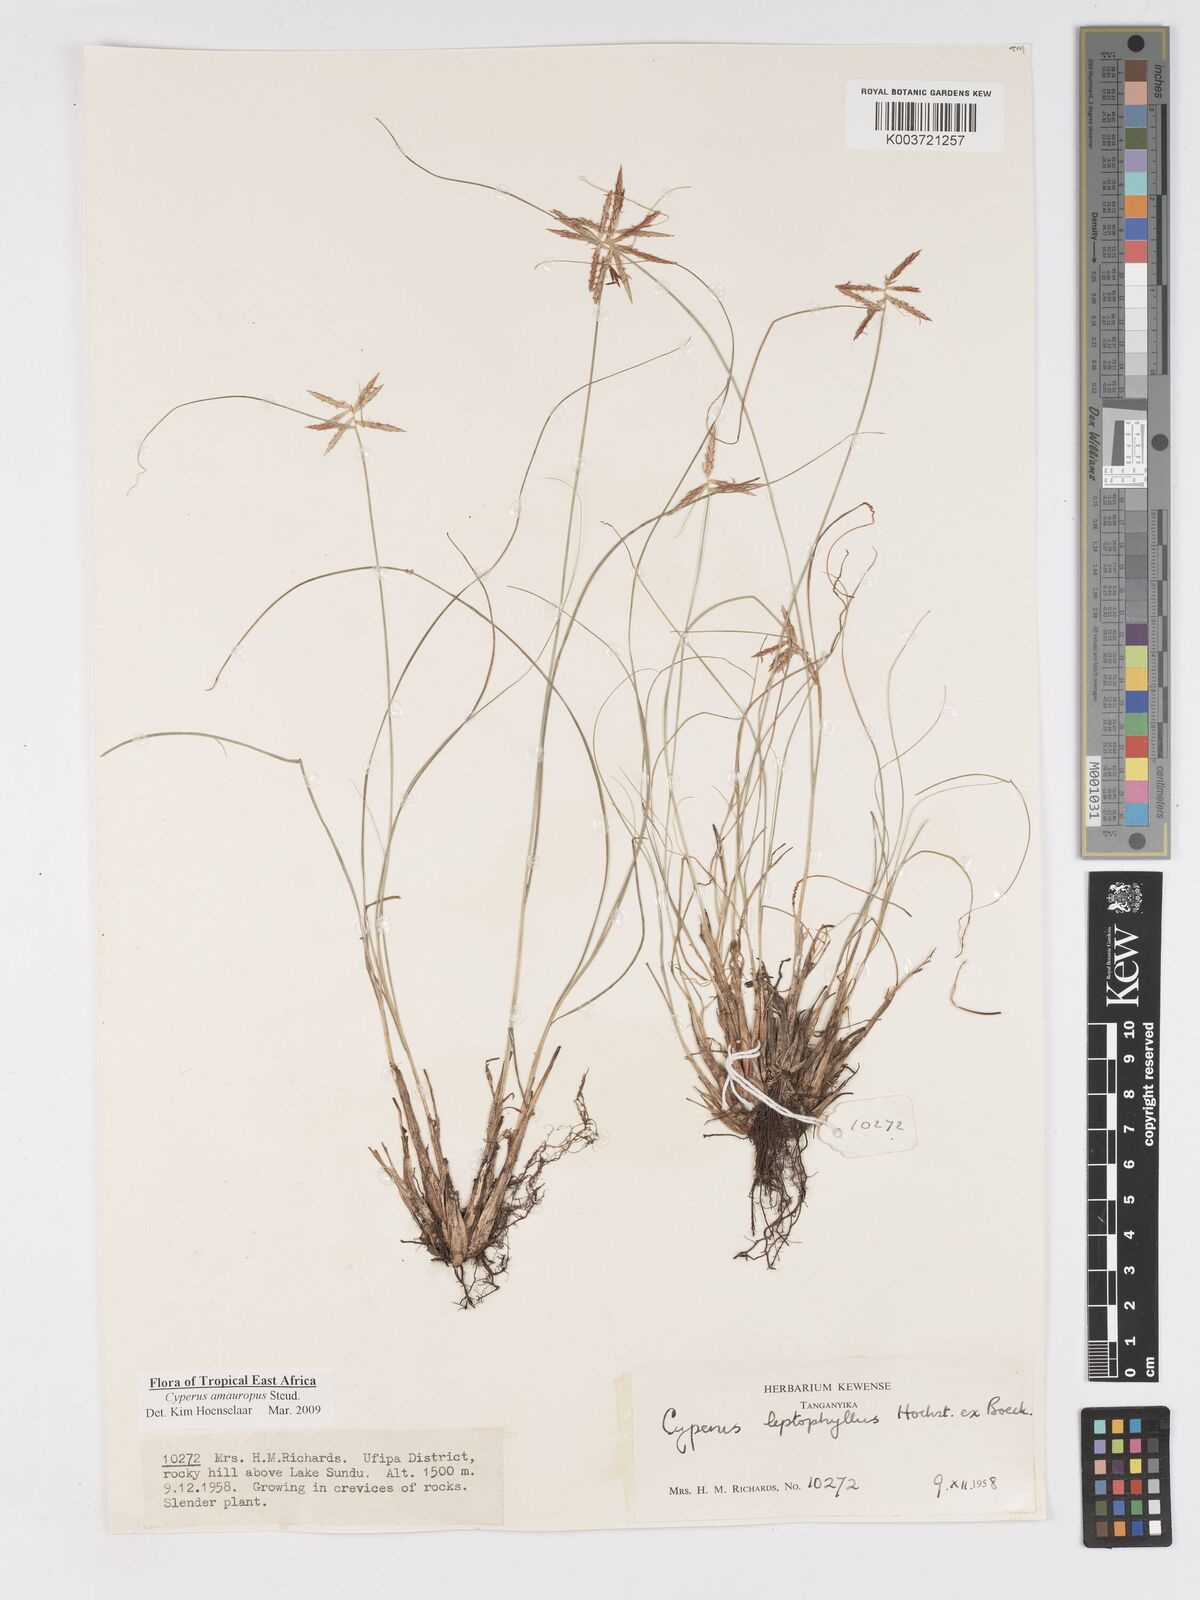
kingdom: Plantae
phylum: Tracheophyta
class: Liliopsida
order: Poales
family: Cyperaceae
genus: Cyperus
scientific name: Cyperus amauropus
